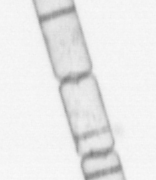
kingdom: Chromista
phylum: Ochrophyta
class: Bacillariophyceae
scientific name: Bacillariophyceae
